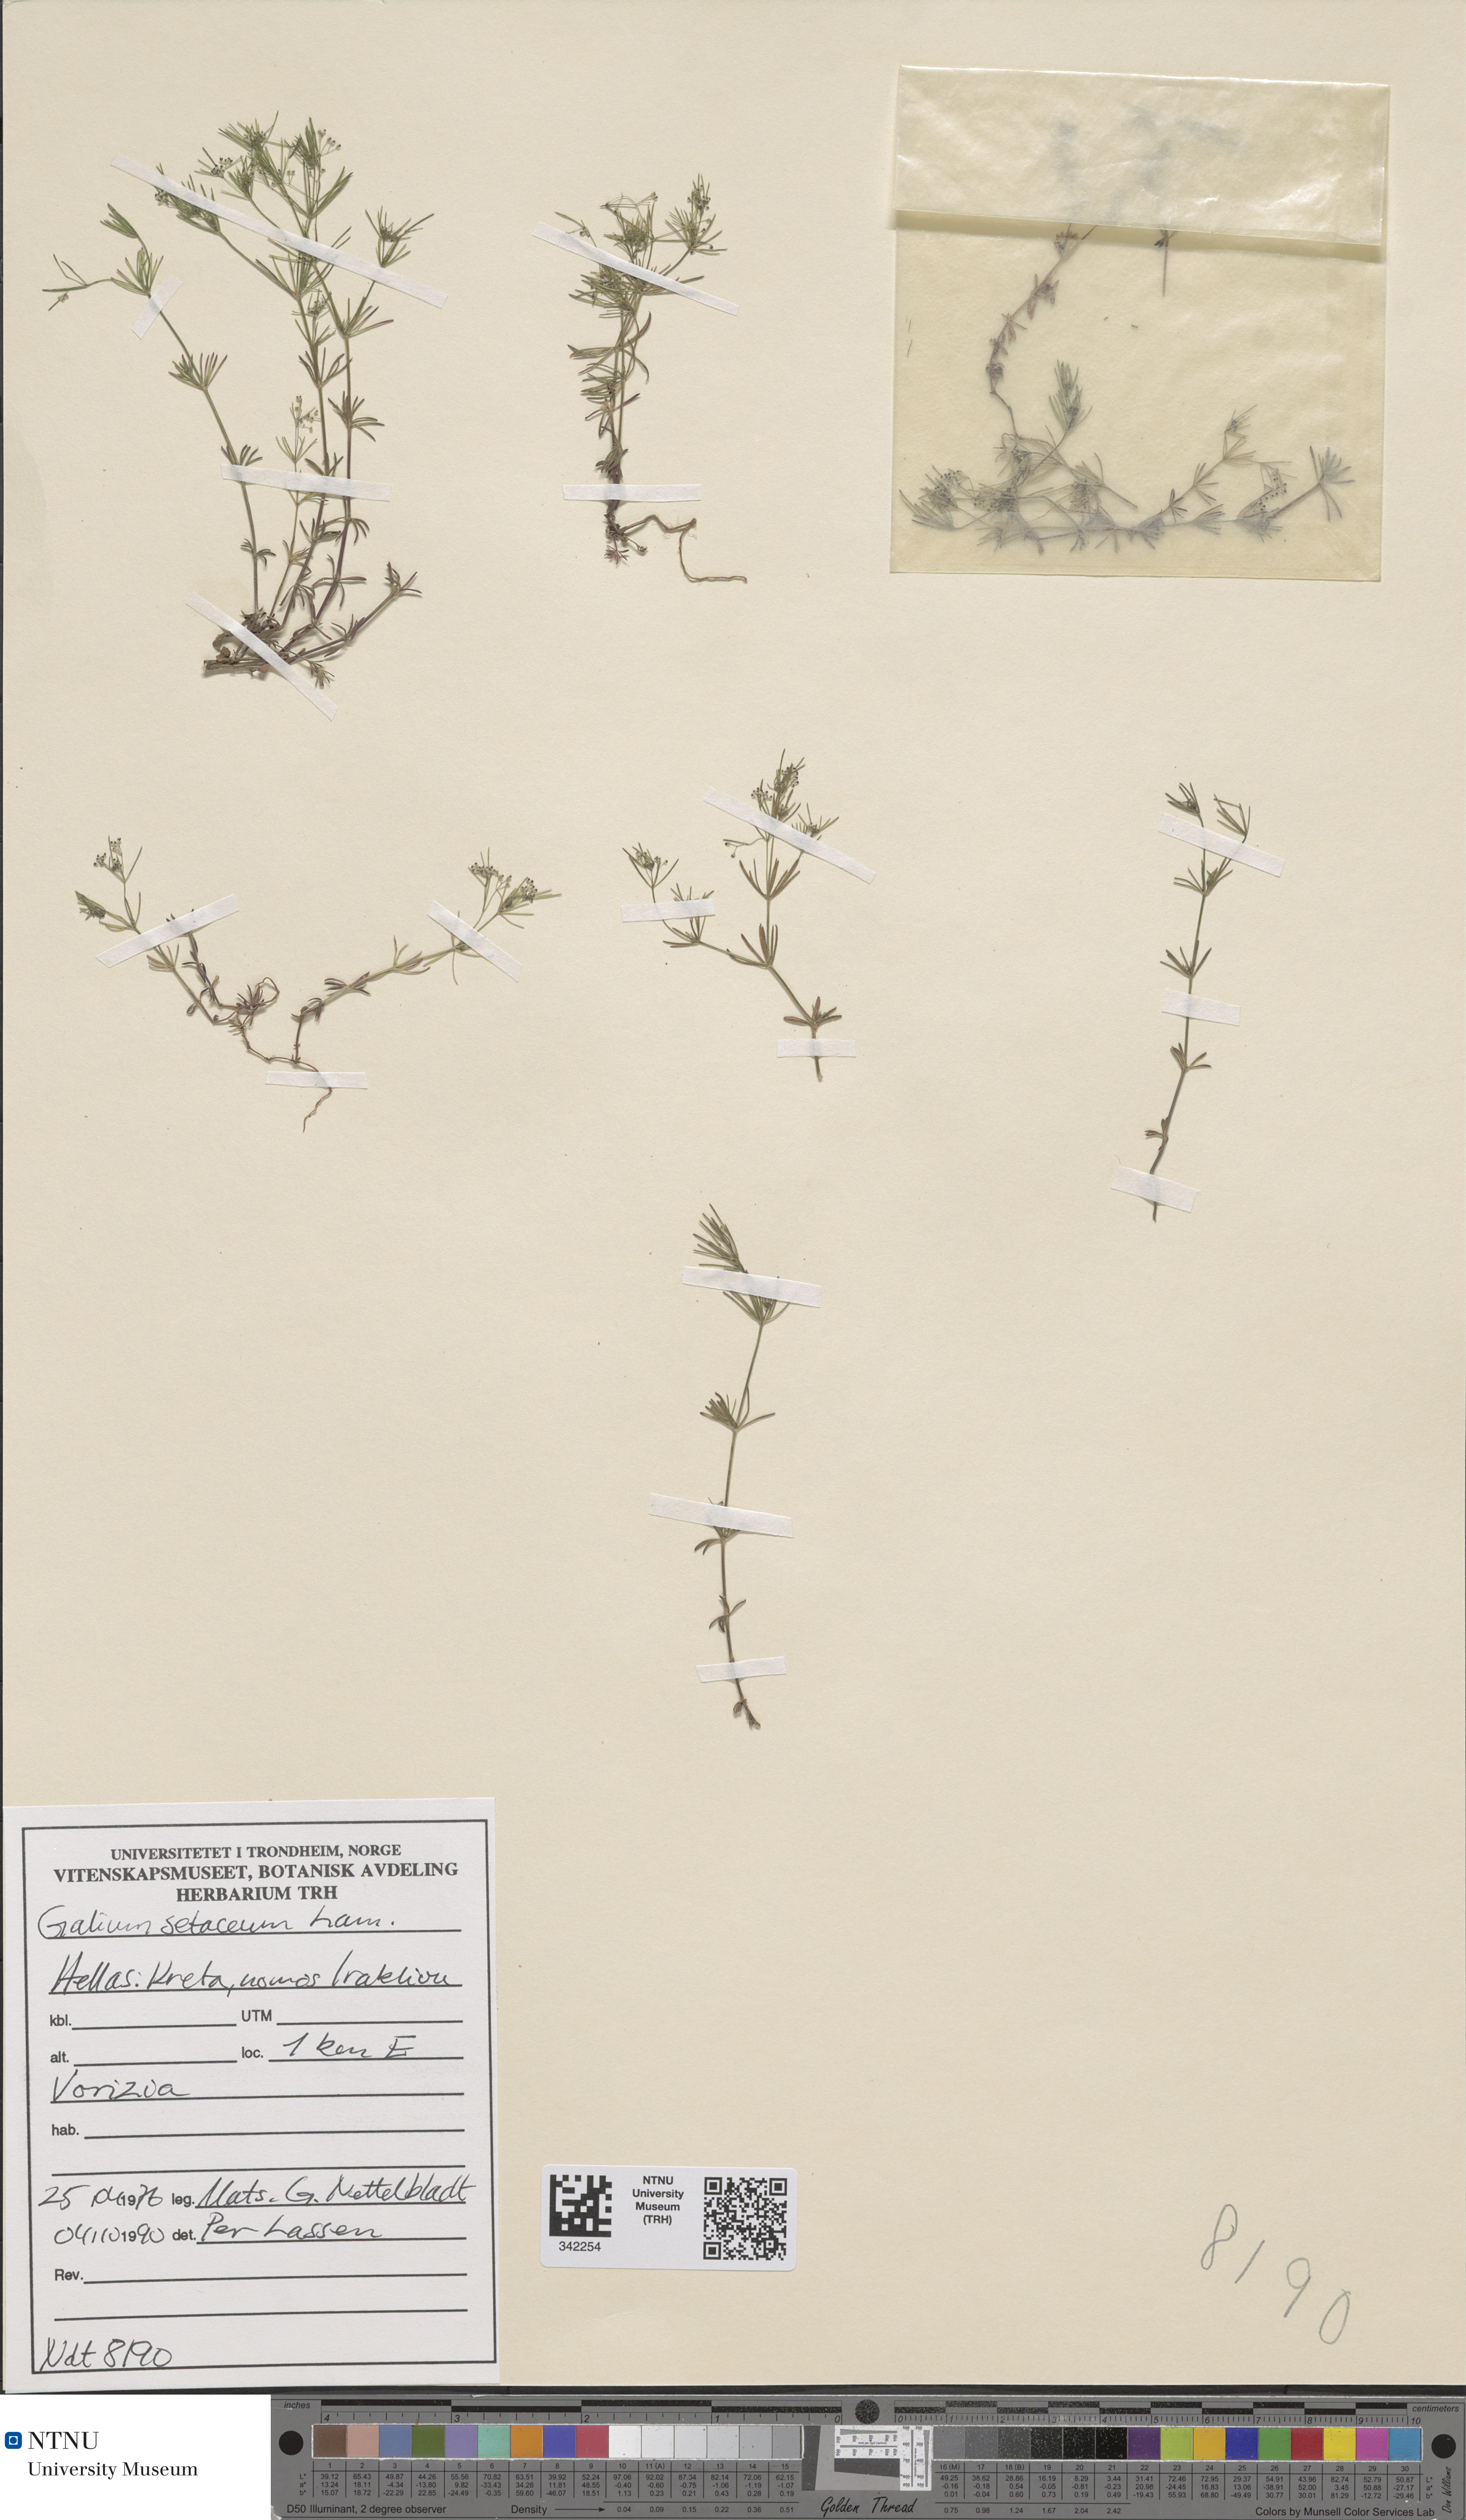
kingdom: Plantae
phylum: Tracheophyta
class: Magnoliopsida
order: Gentianales
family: Rubiaceae
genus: Galium
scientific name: Galium setaceum
